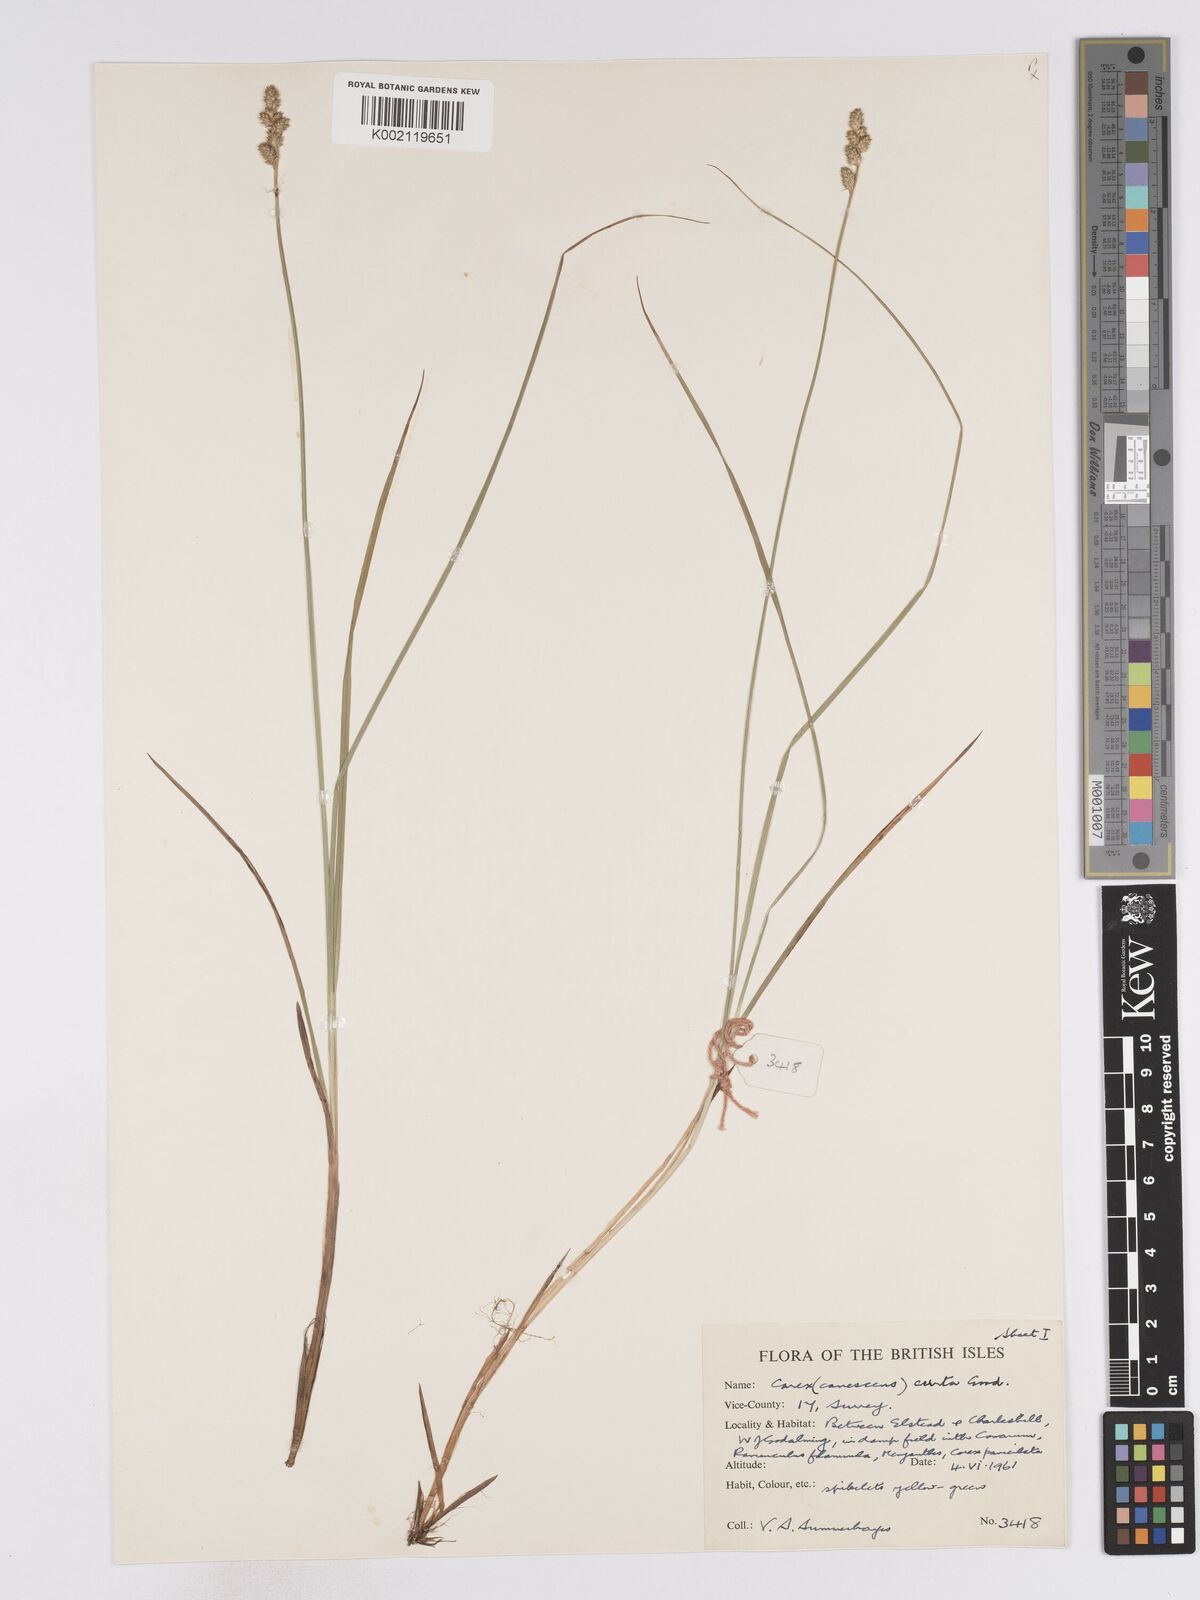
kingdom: Plantae
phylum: Tracheophyta
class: Liliopsida
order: Poales
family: Cyperaceae
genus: Carex
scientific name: Carex curta
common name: White sedge
